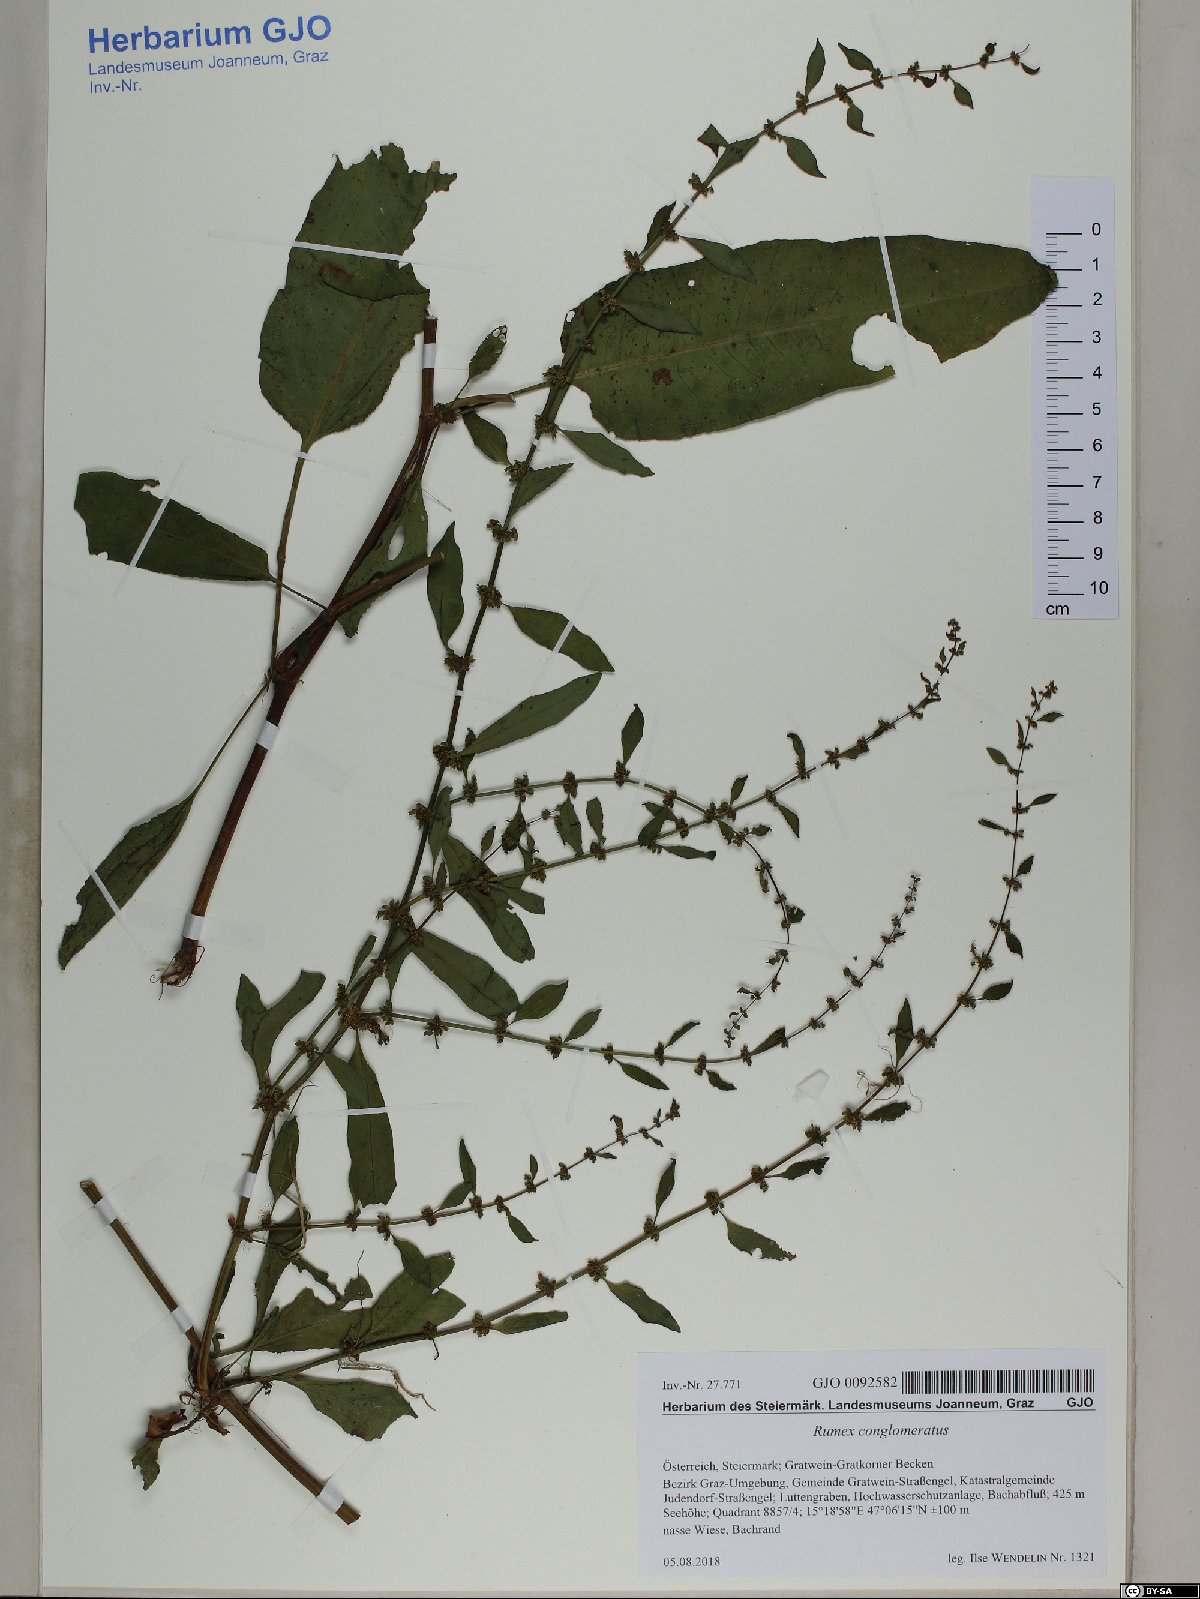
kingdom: Plantae
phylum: Tracheophyta
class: Magnoliopsida
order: Caryophyllales
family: Polygonaceae
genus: Rumex
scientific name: Rumex conglomeratus
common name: Clustered dock
